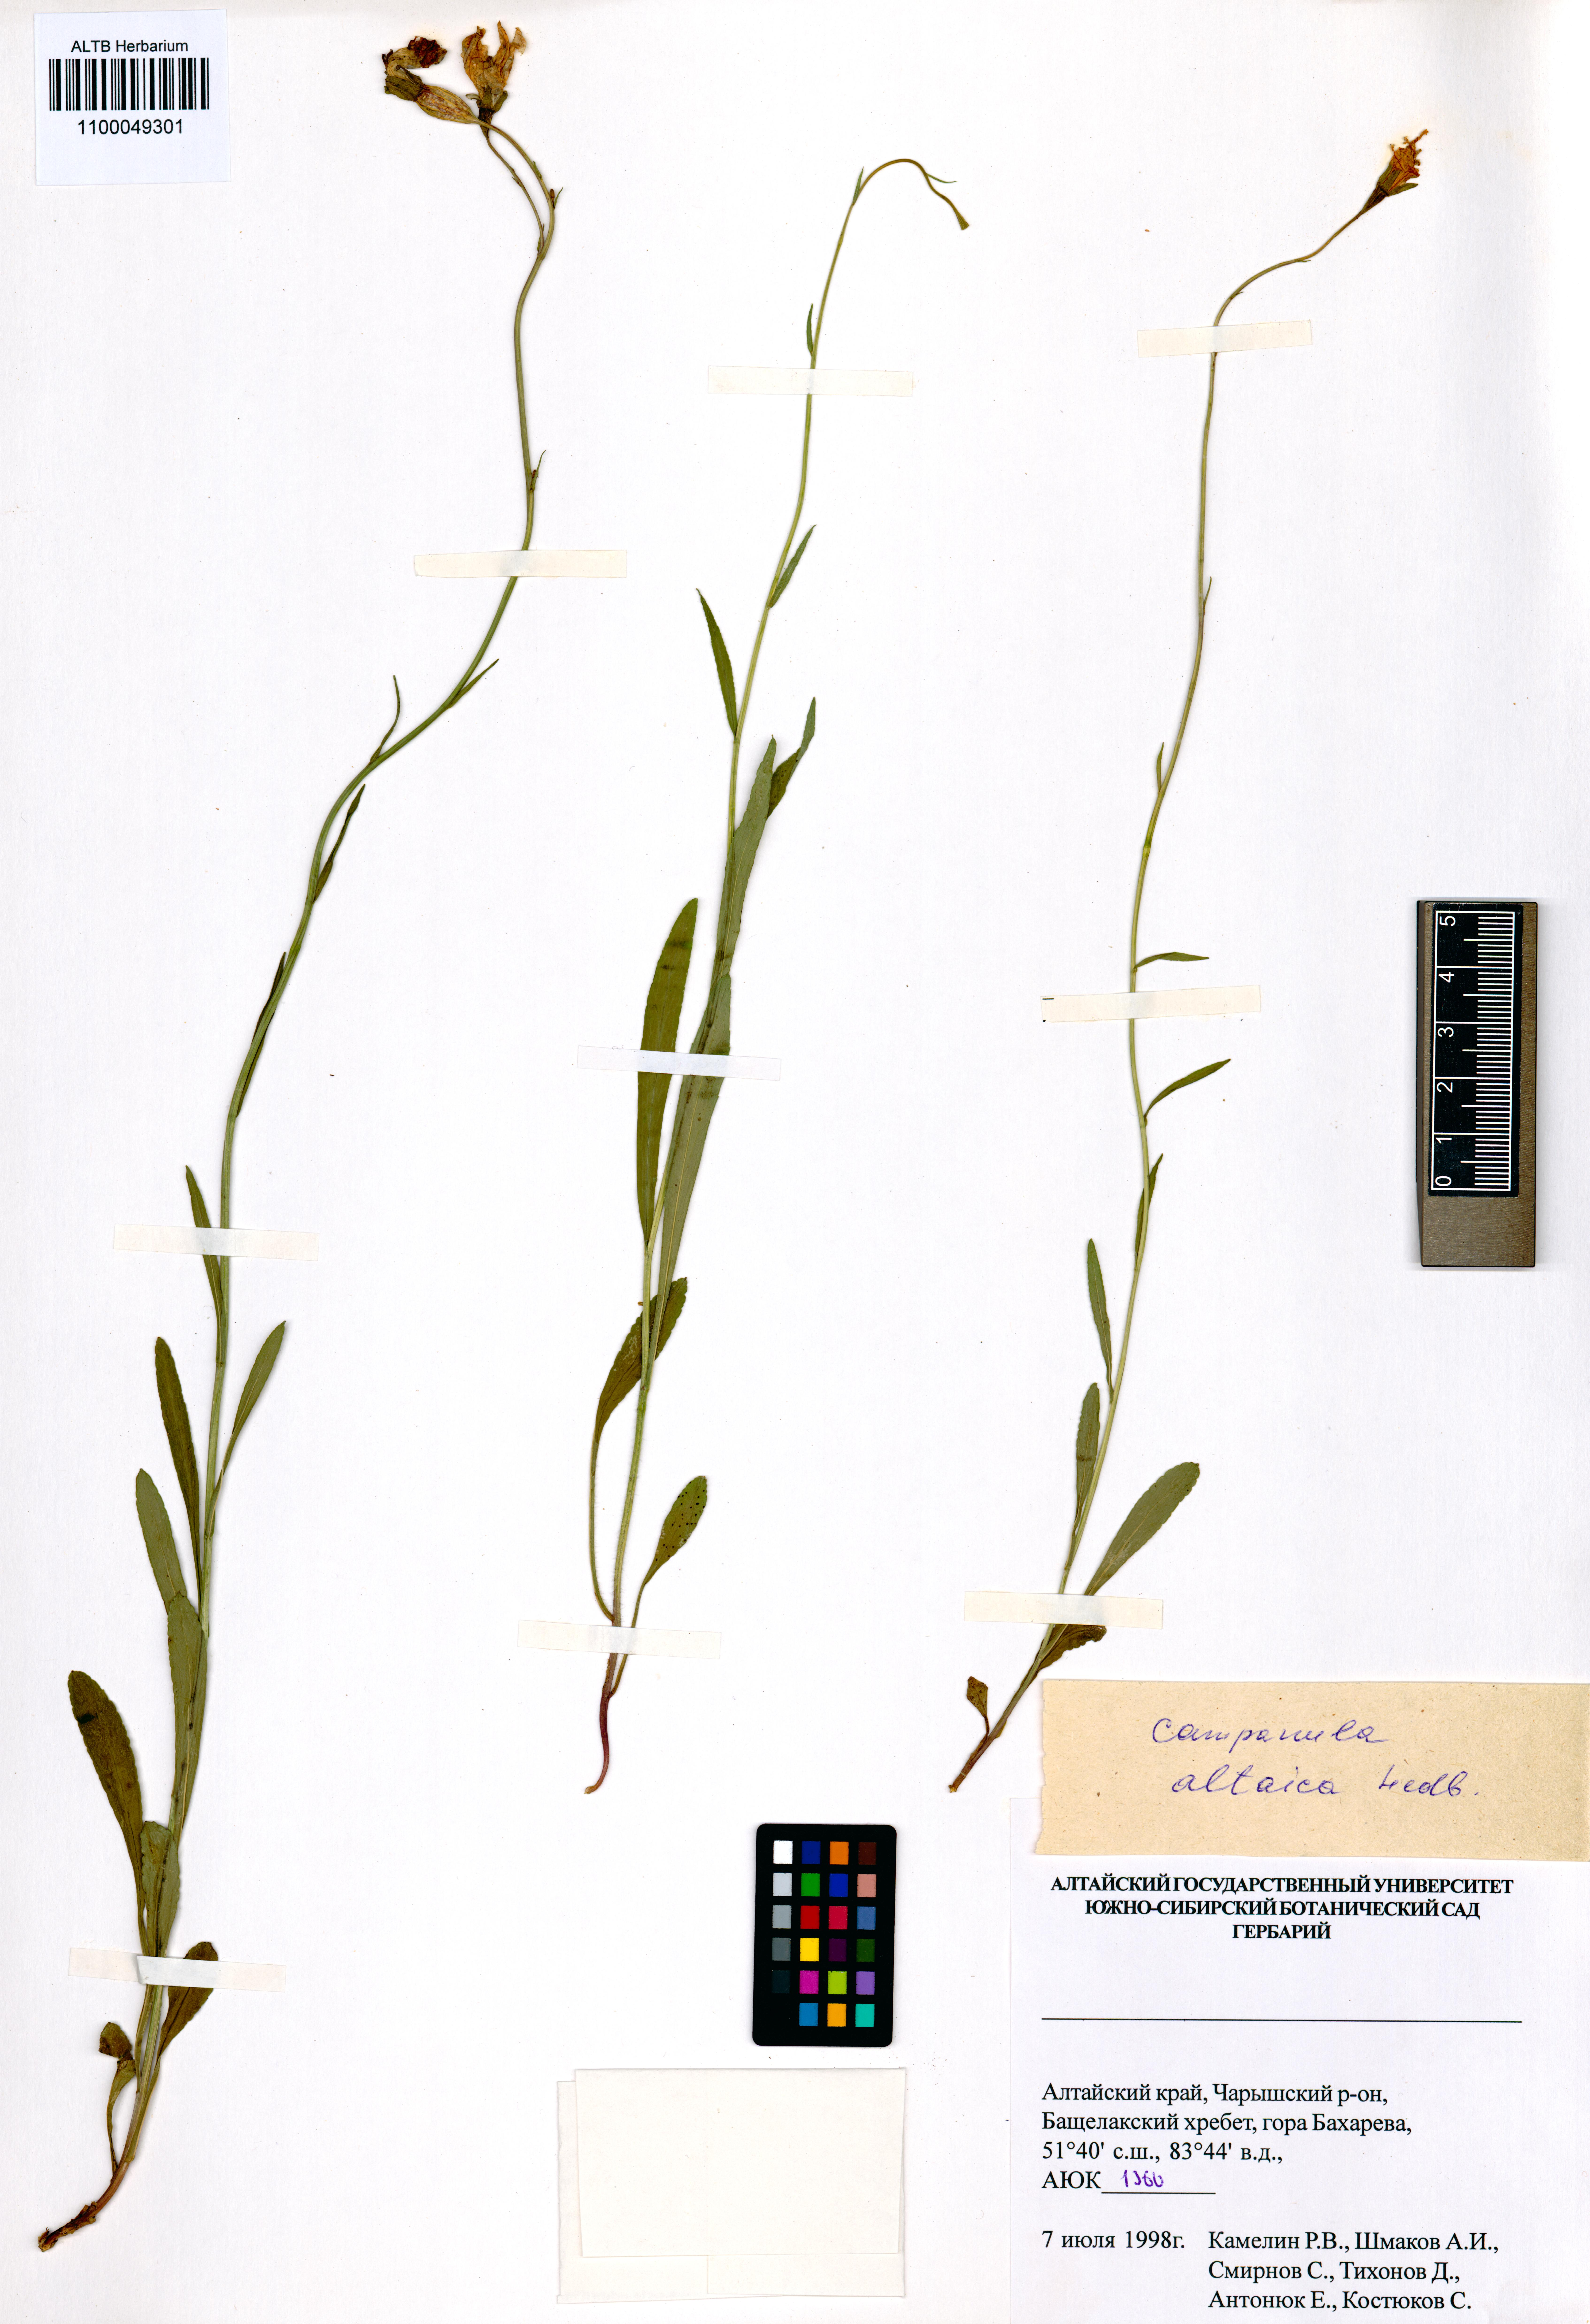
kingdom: Plantae
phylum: Tracheophyta
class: Magnoliopsida
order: Asterales
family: Campanulaceae
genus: Campanula
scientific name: Campanula stevenii
